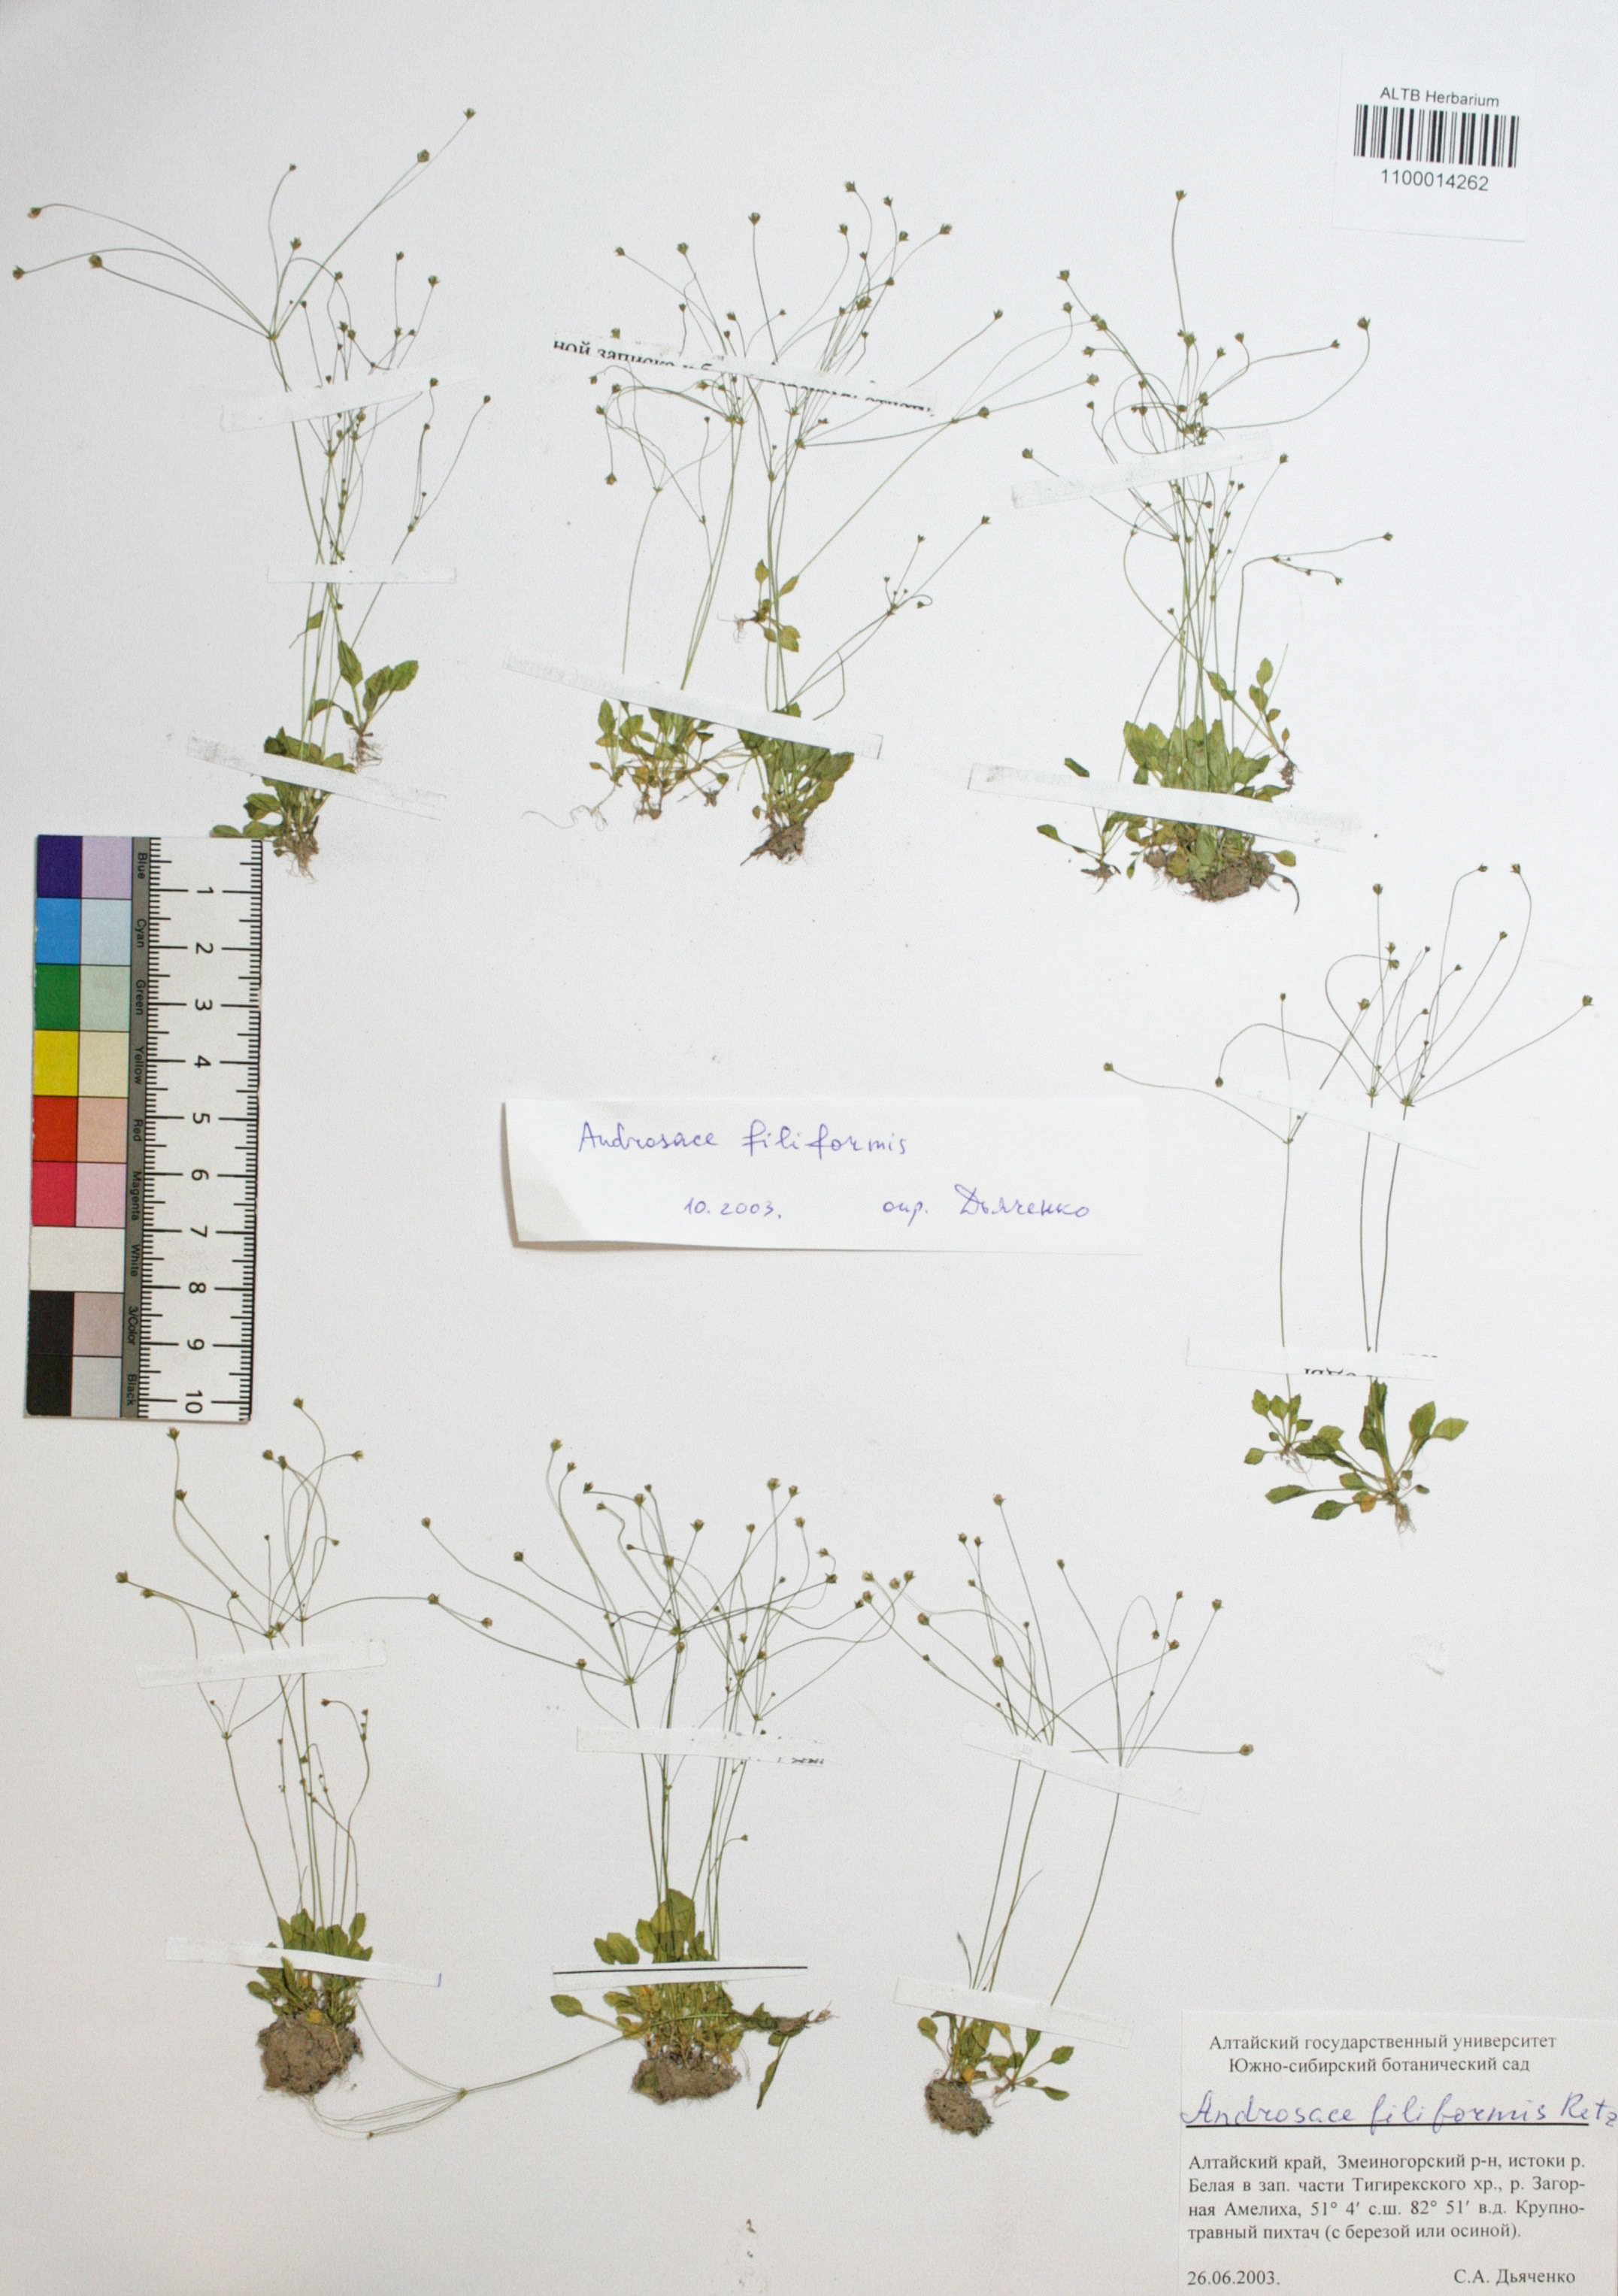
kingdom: Plantae
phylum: Tracheophyta
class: Magnoliopsida
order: Ericales
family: Primulaceae
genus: Androsace
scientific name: Androsace filiformis
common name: Filiform rock jasmine
